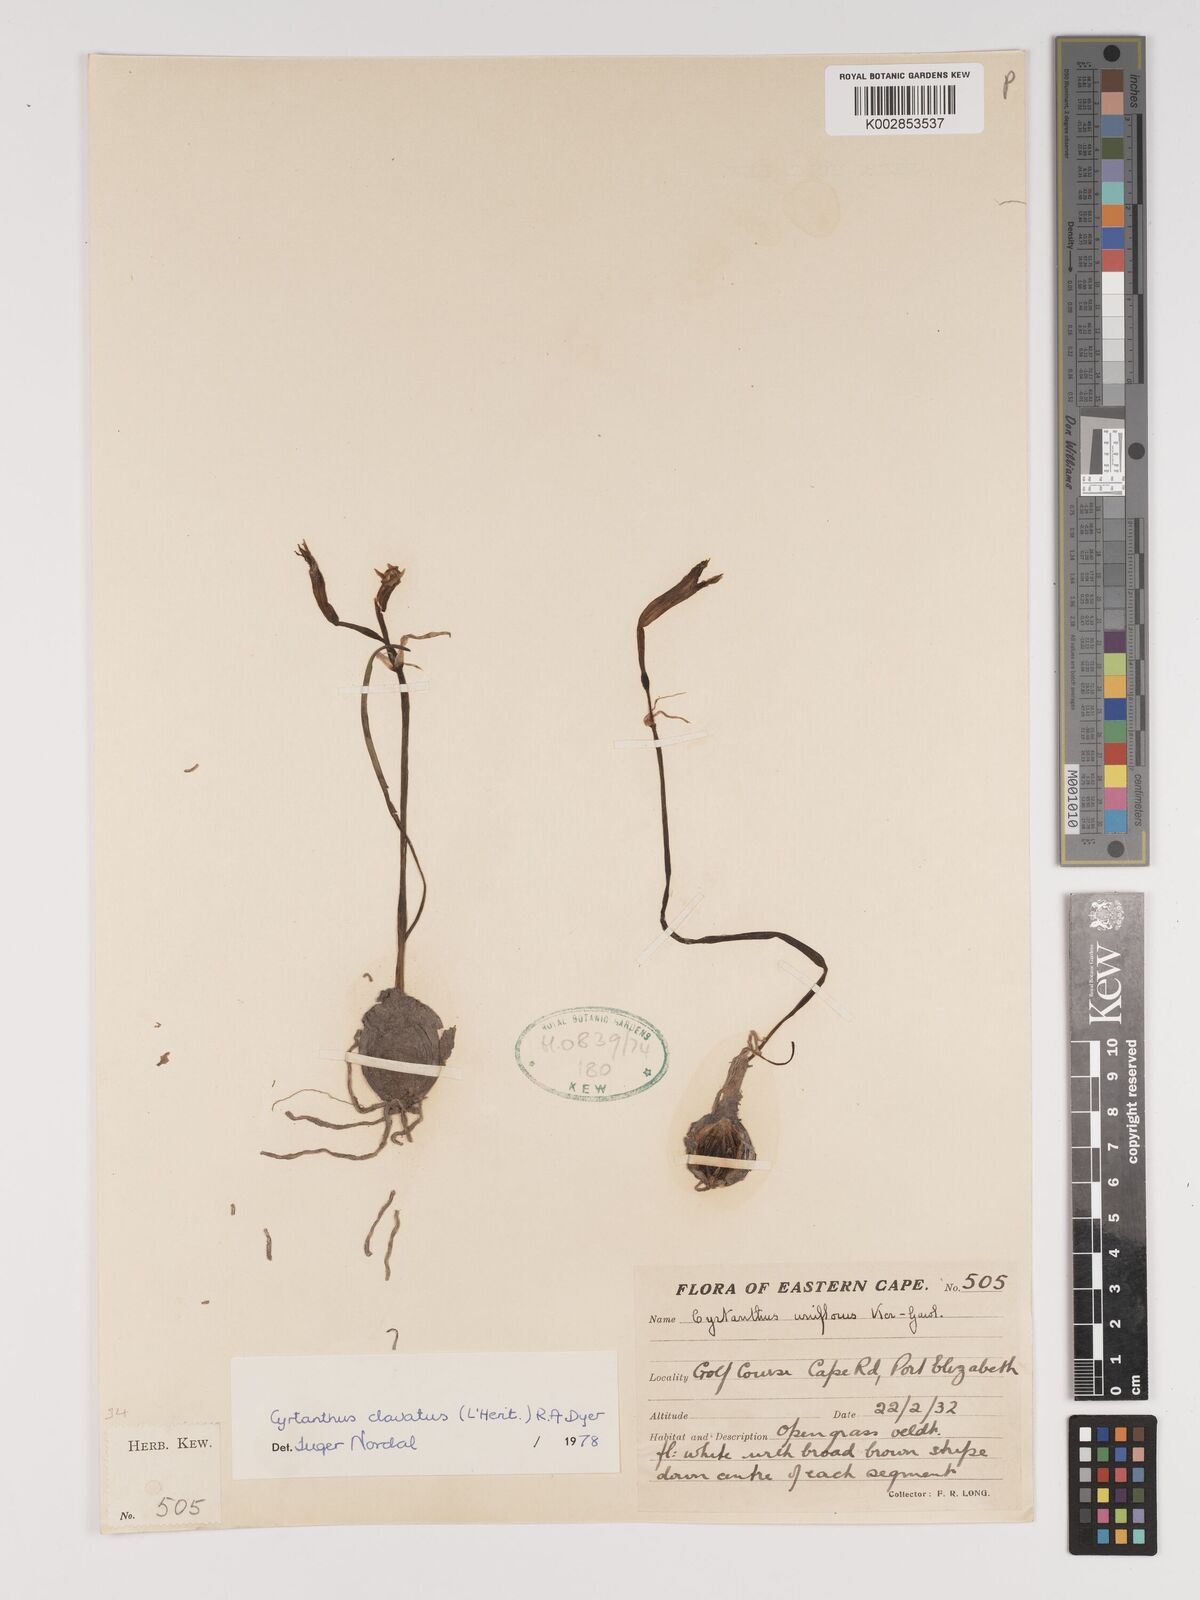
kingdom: Plantae
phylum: Tracheophyta
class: Liliopsida
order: Asparagales
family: Amaryllidaceae
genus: Cyrtanthus
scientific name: Cyrtanthus clavatus
